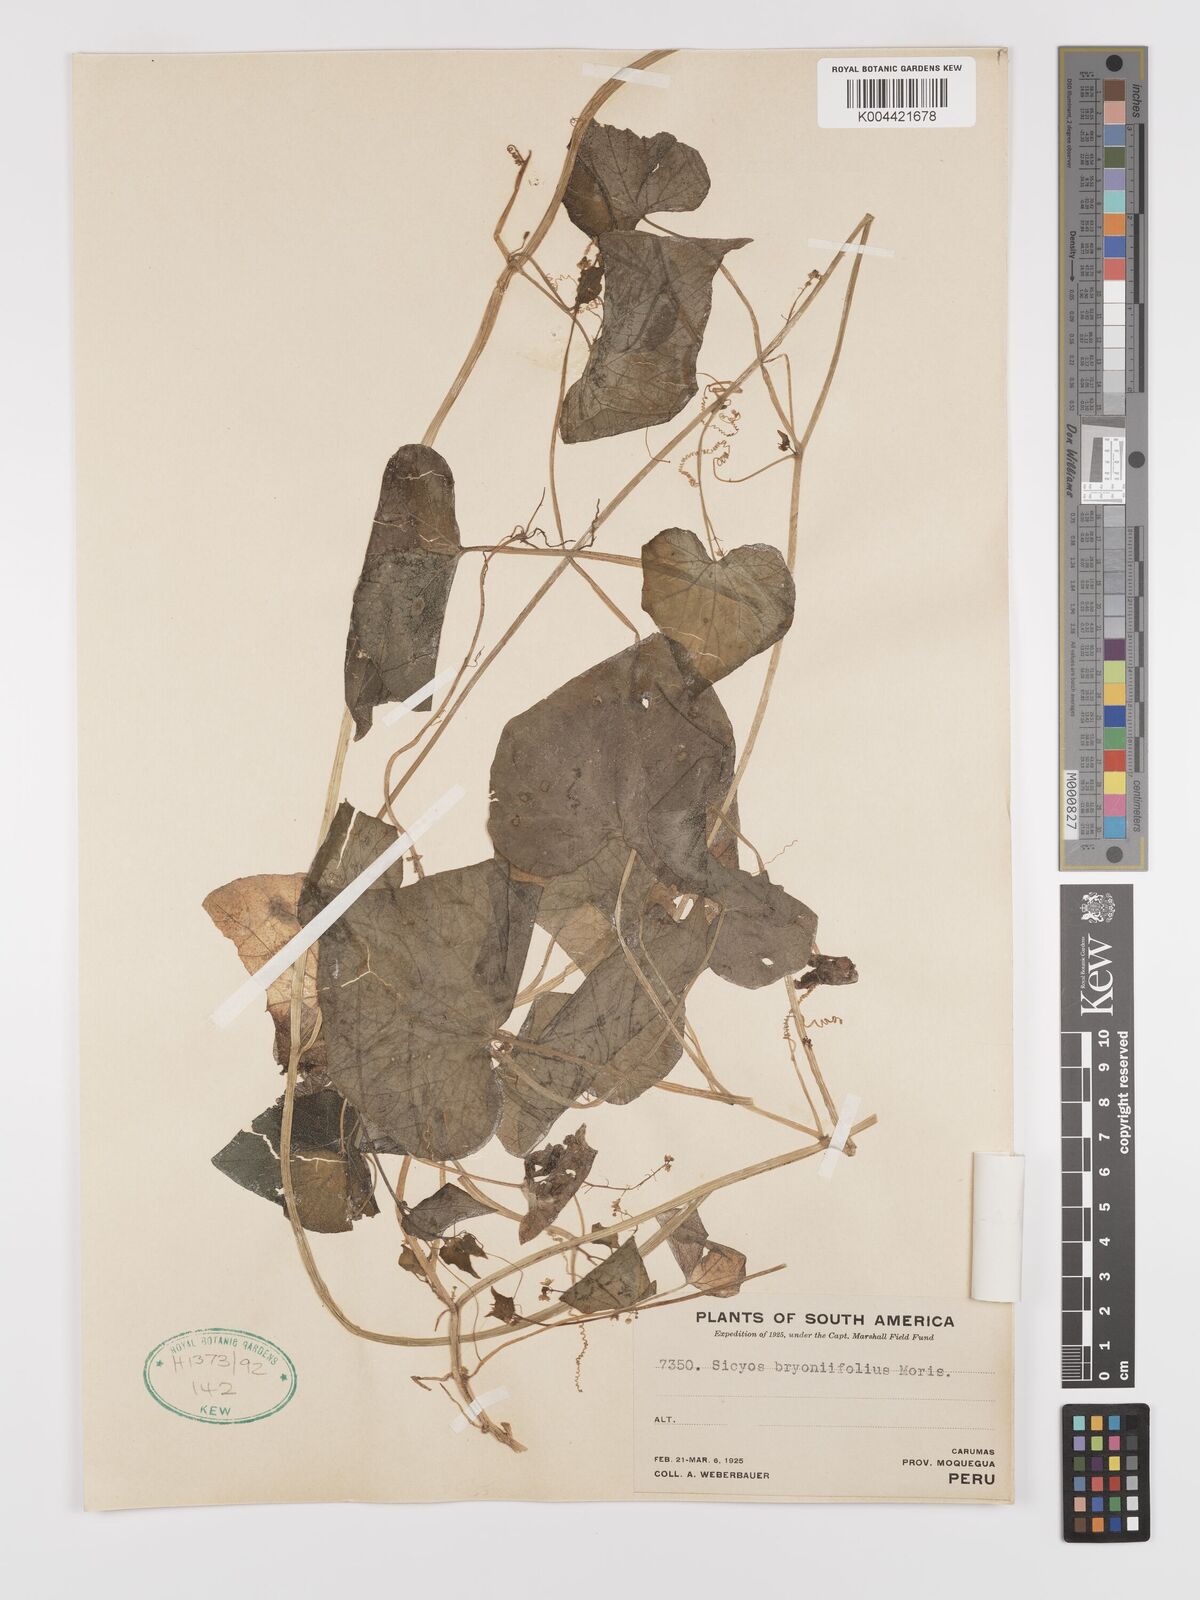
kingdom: Plantae
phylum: Tracheophyta
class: Magnoliopsida
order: Cucurbitales
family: Cucurbitaceae
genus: Sicyos
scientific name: Sicyos baderoa
